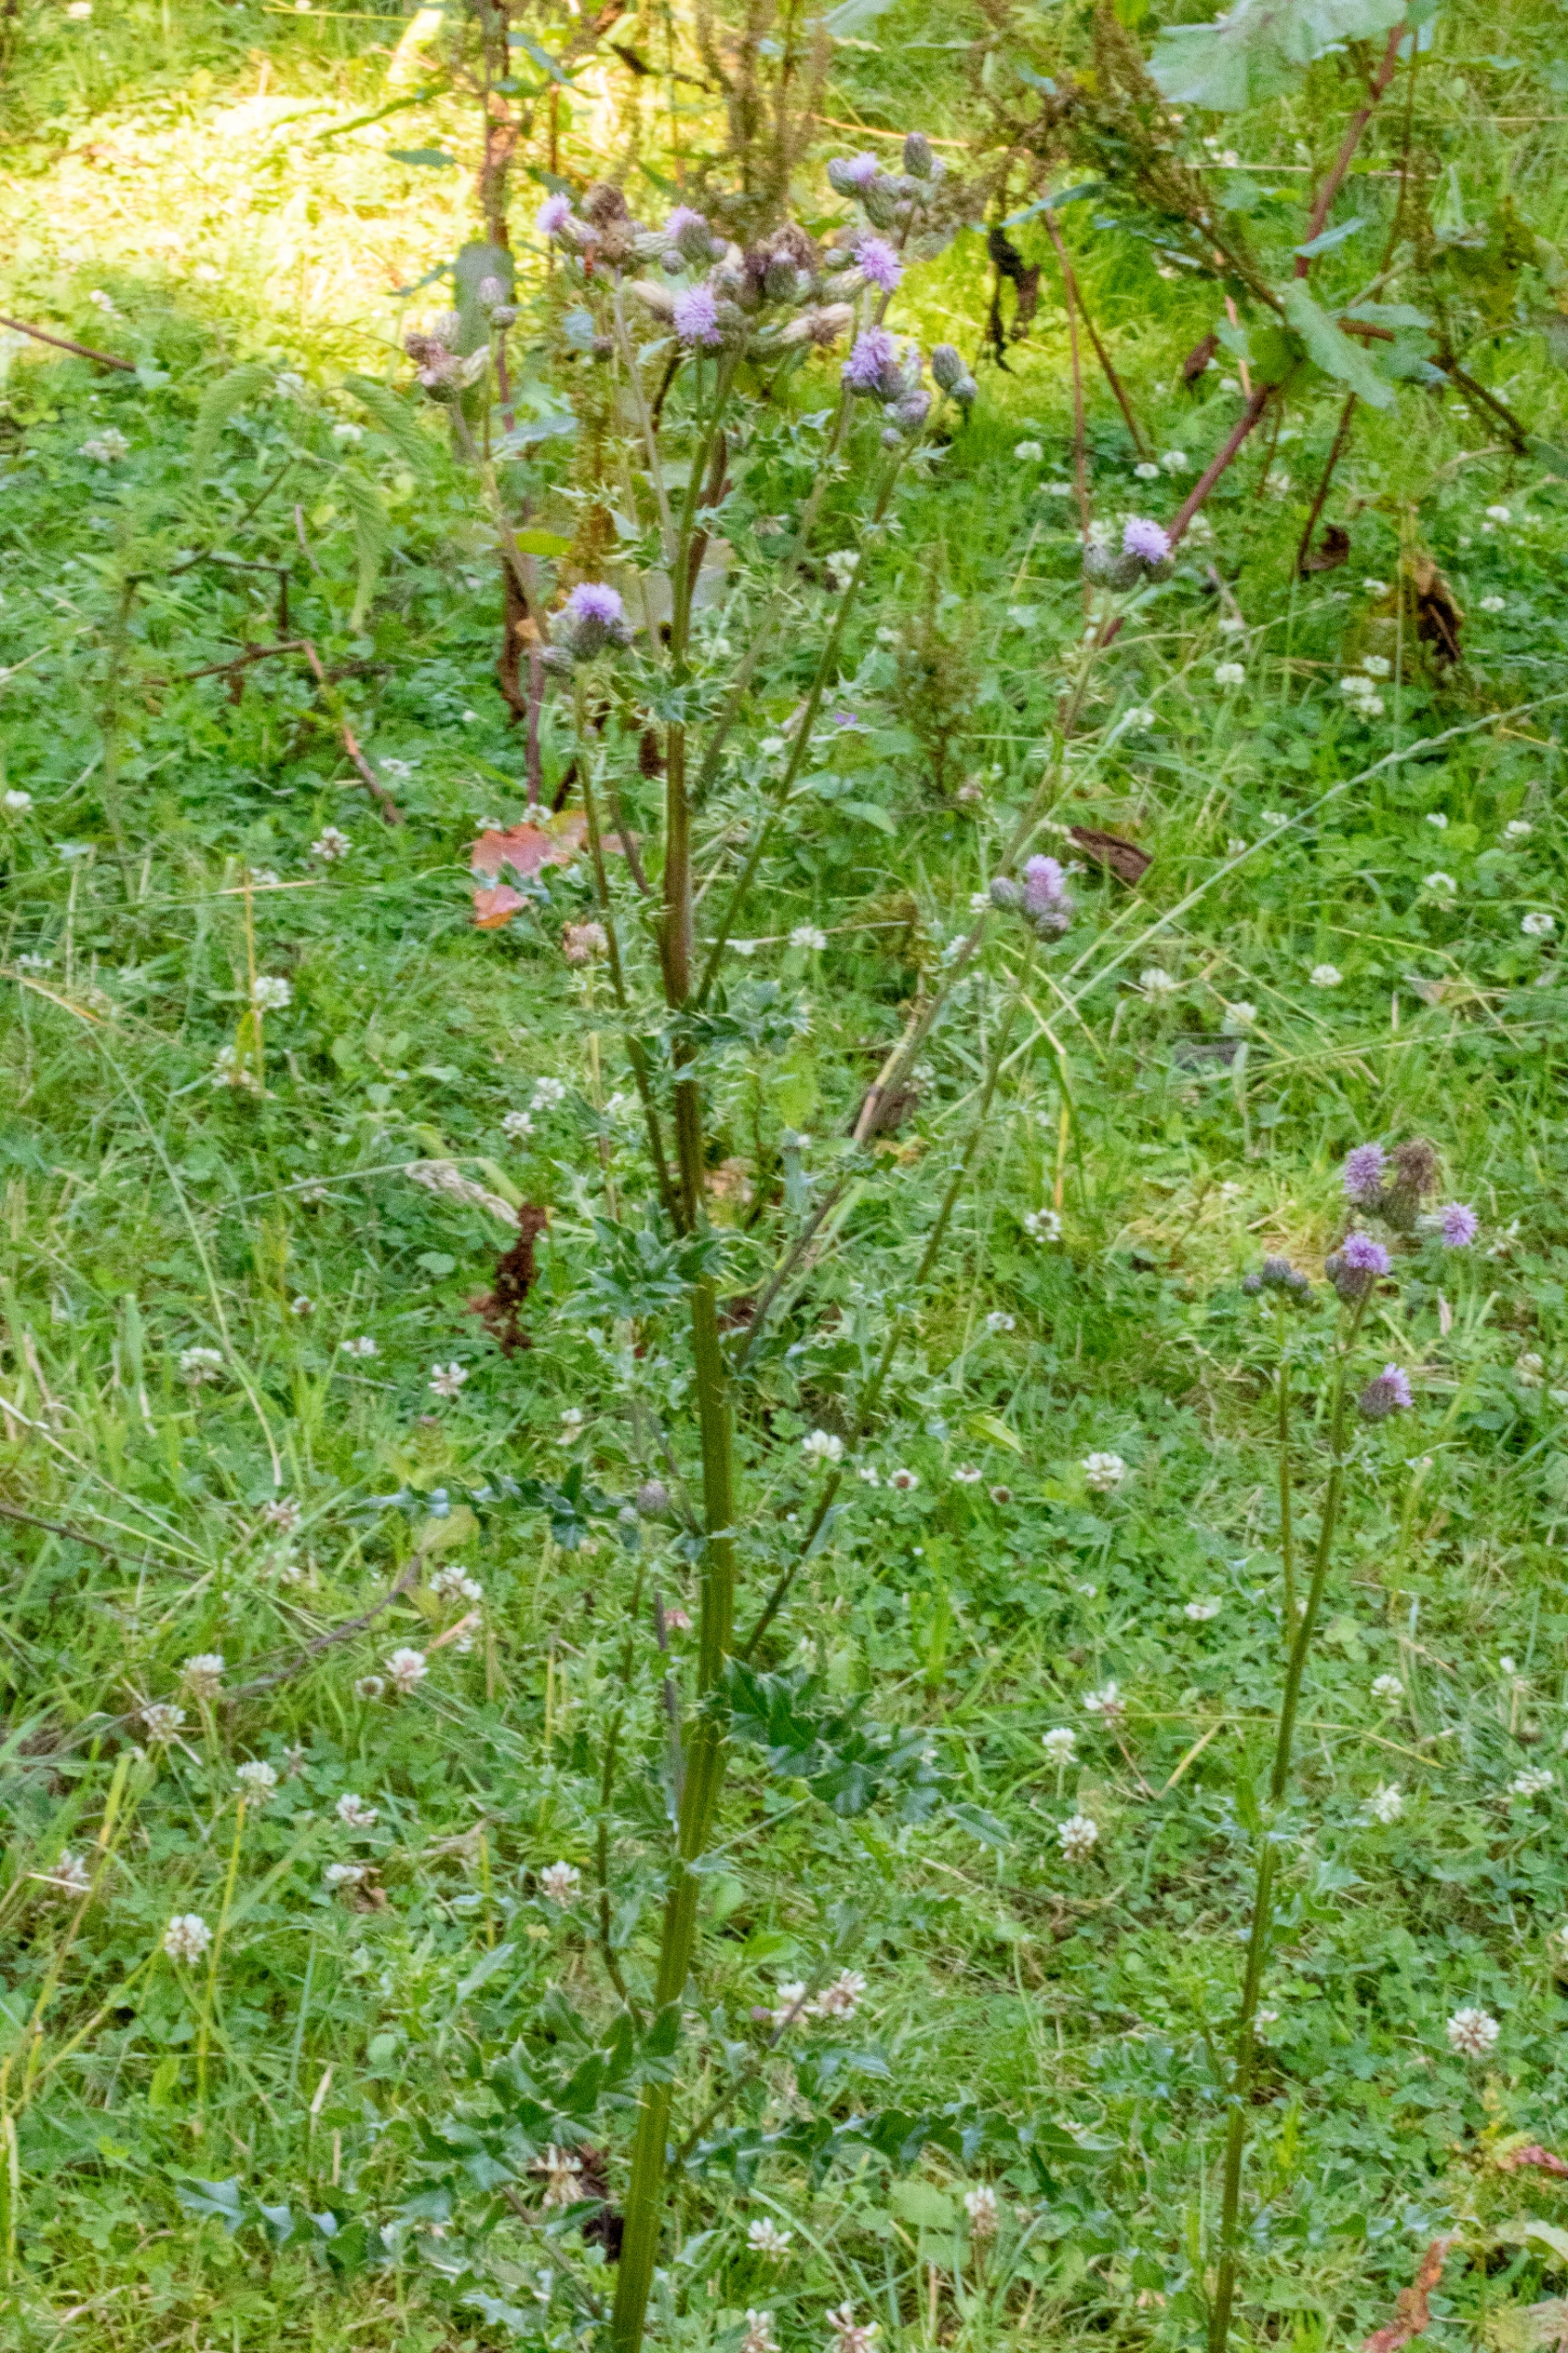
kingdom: Plantae
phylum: Tracheophyta
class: Magnoliopsida
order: Asterales
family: Asteraceae
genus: Cirsium
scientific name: Cirsium arvense
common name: Ager-tidsel
